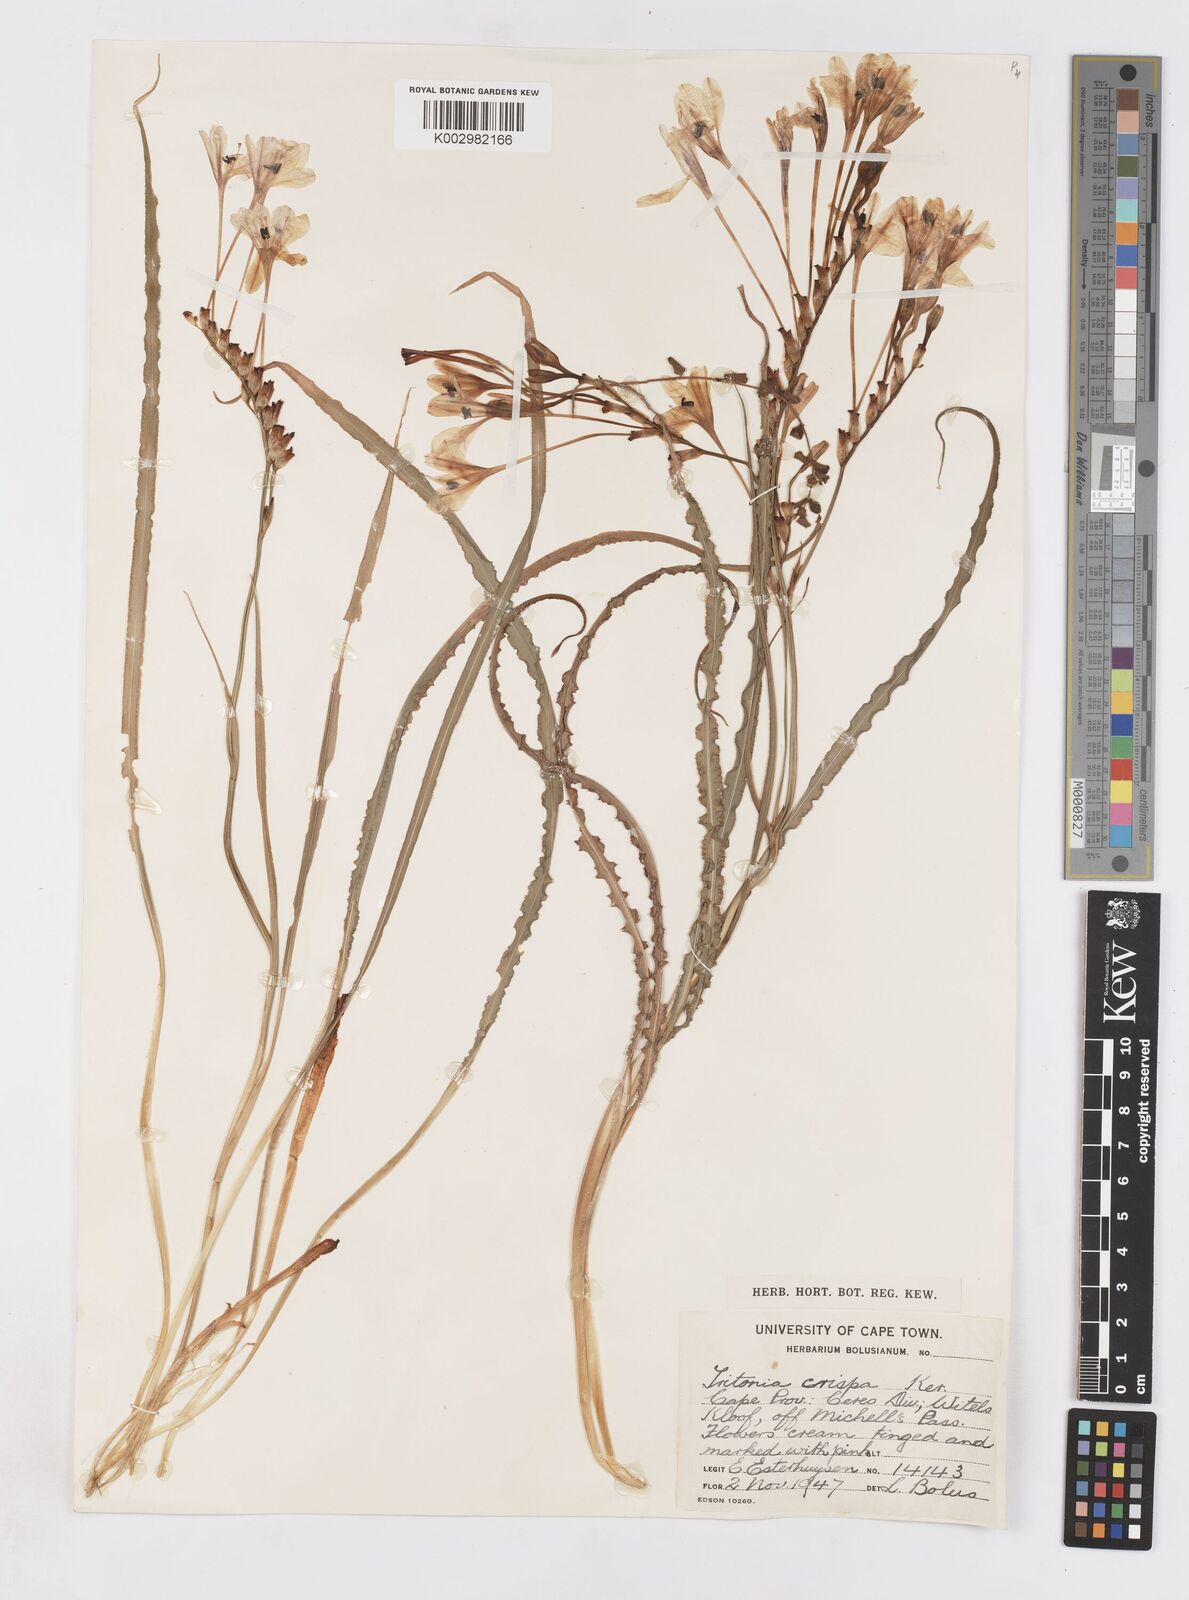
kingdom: Plantae
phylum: Tracheophyta
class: Liliopsida
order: Asparagales
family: Iridaceae
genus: Tritonia
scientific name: Tritonia undulata
